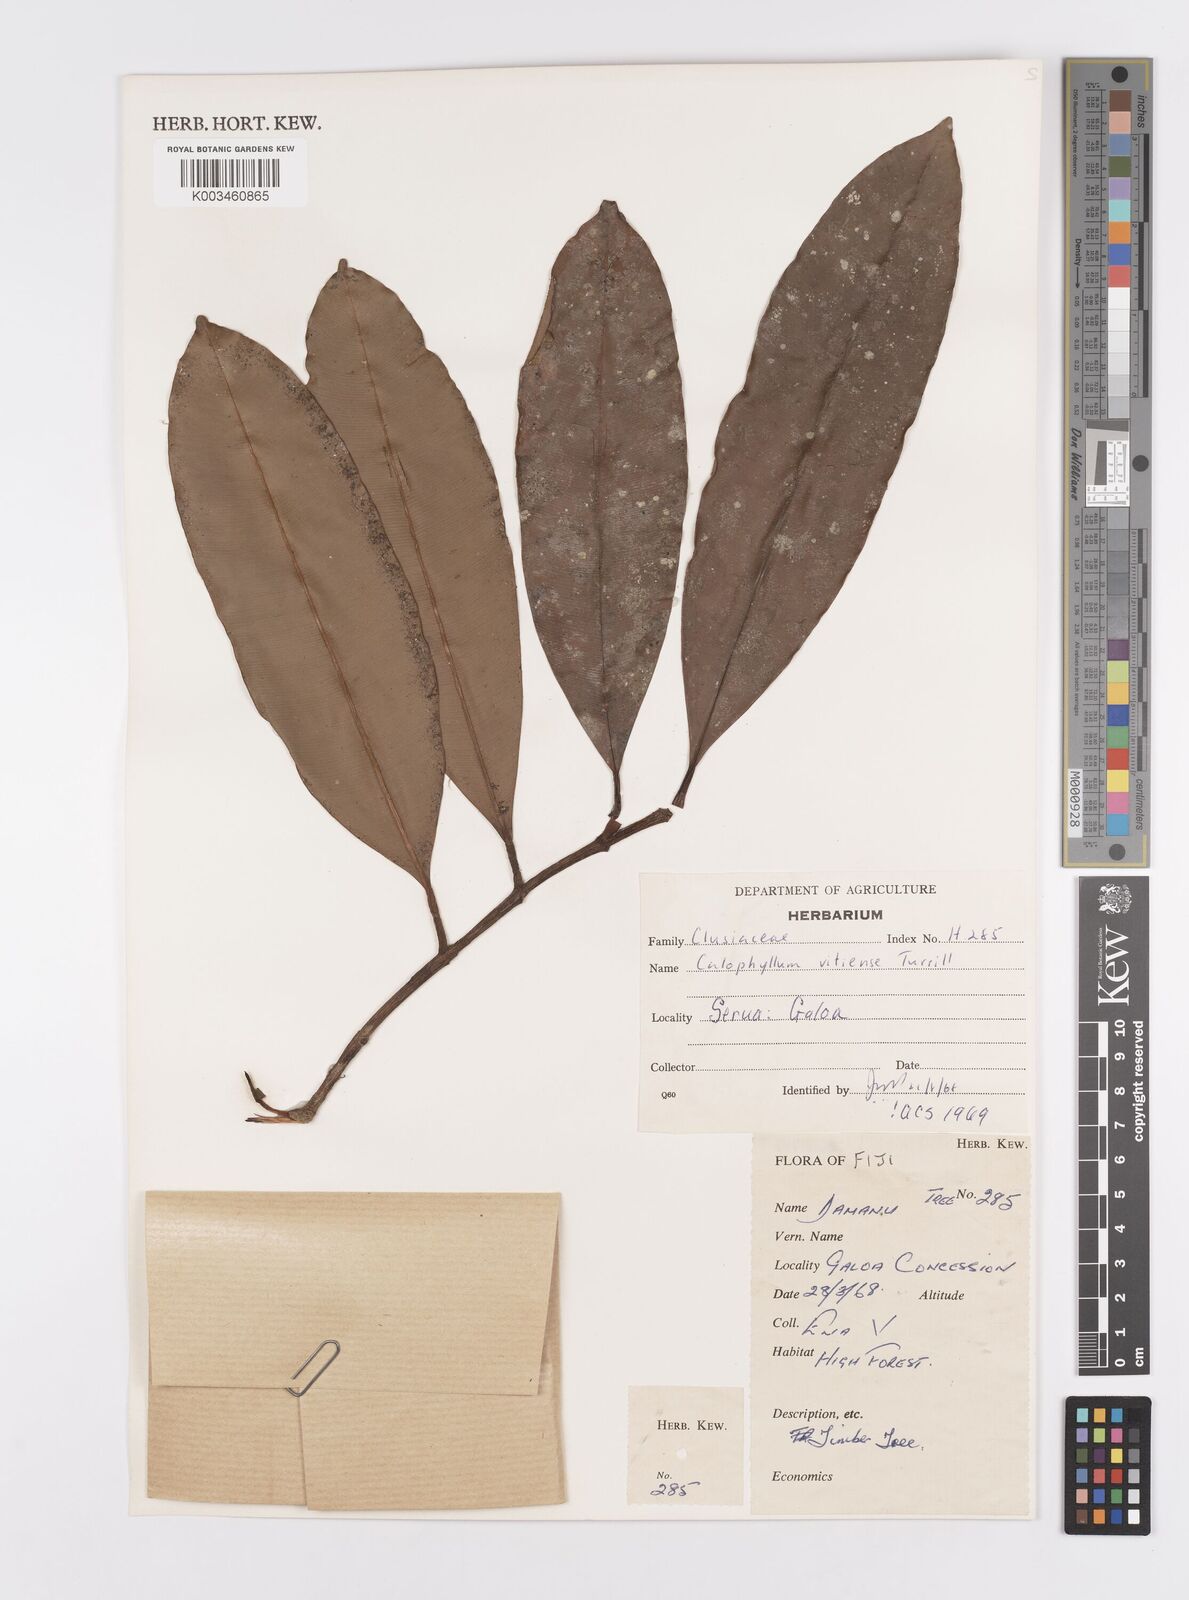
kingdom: Plantae
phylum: Tracheophyta
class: Magnoliopsida
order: Malpighiales
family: Calophyllaceae
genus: Calophyllum
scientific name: Calophyllum vitiense
